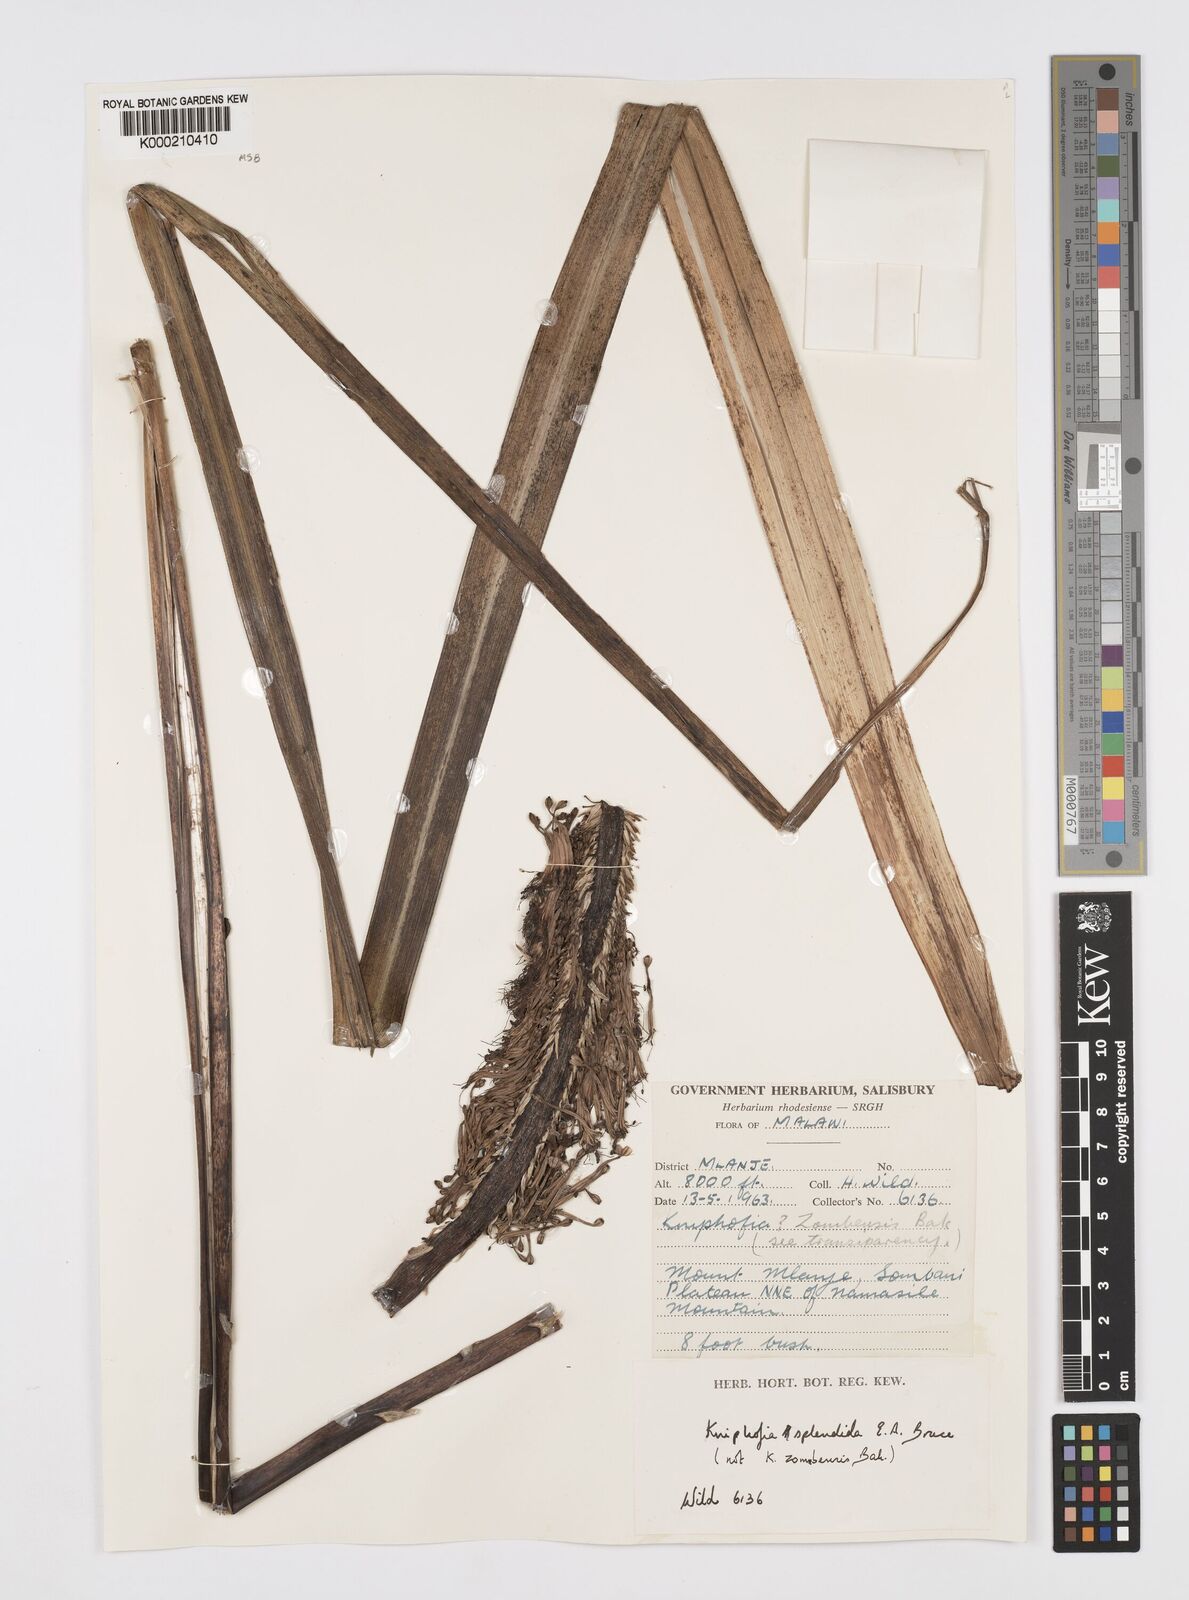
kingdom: Plantae
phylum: Tracheophyta
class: Liliopsida
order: Asparagales
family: Asphodelaceae
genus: Kniphofia
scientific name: Kniphofia splendida
